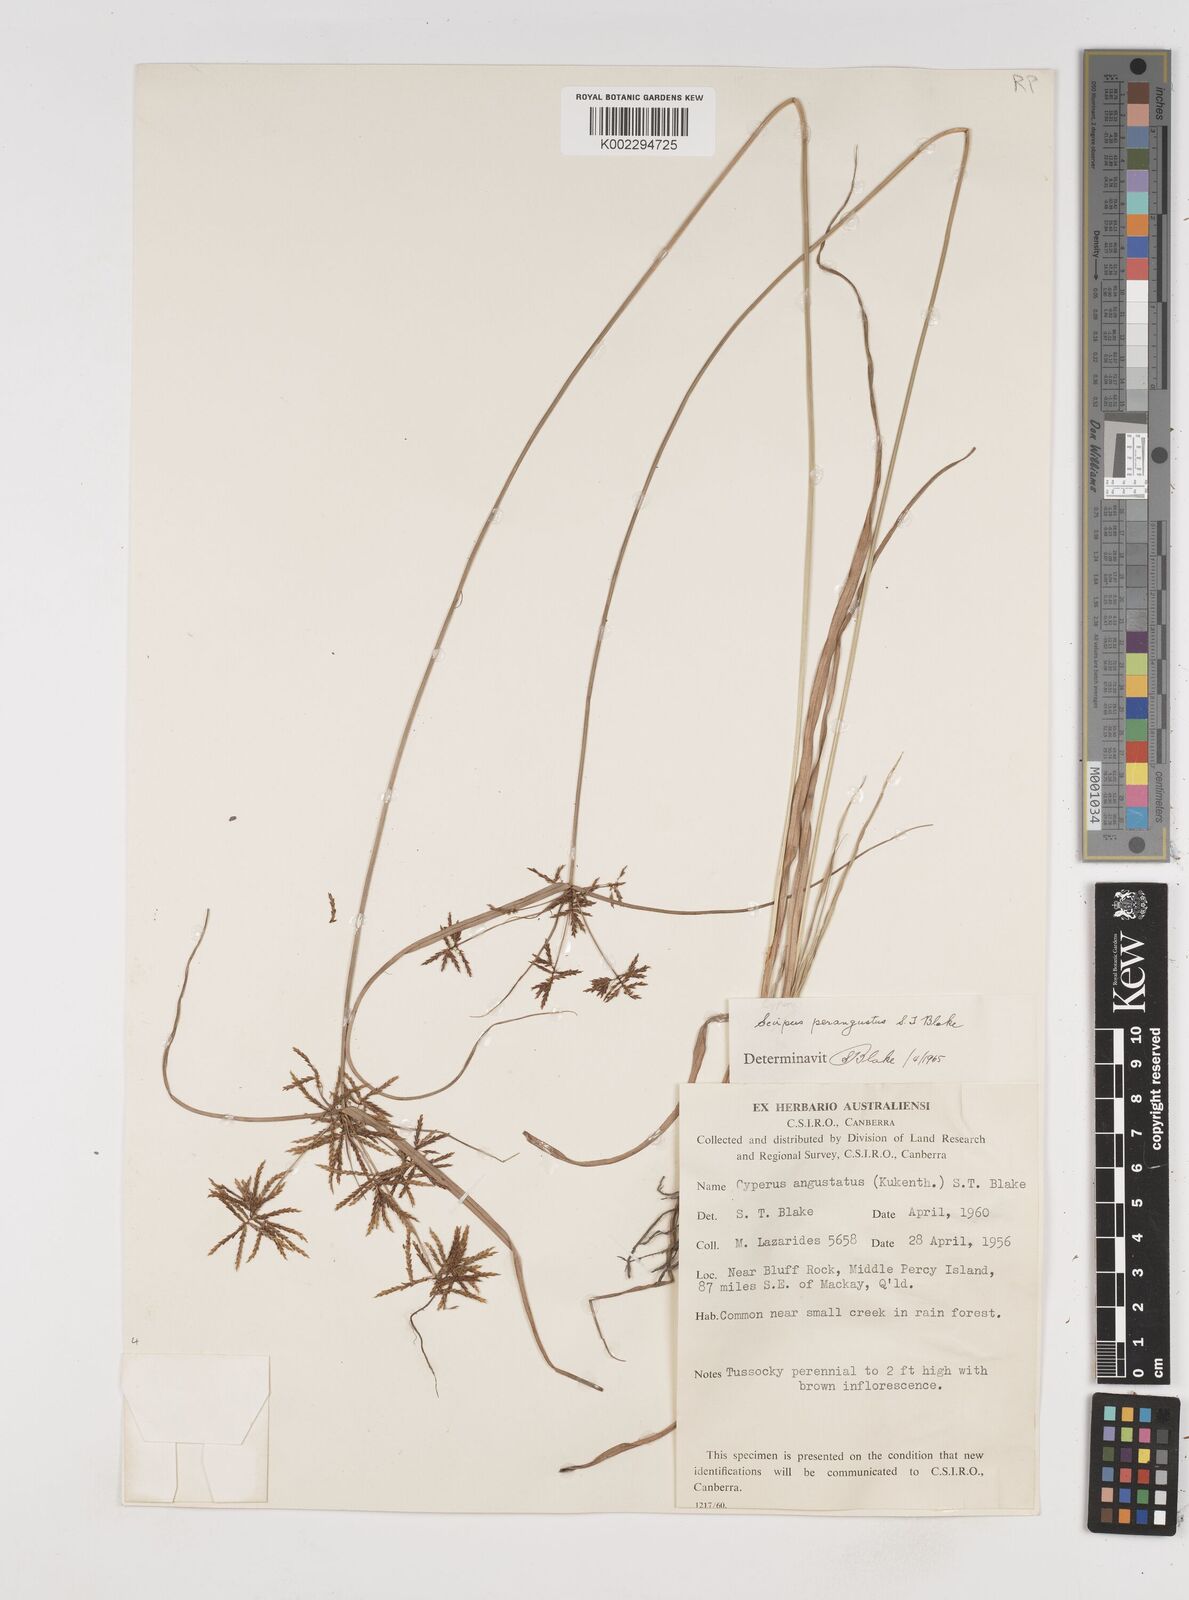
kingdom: Plantae
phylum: Tracheophyta
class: Liliopsida
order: Poales
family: Cyperaceae
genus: Cyperus
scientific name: Cyperus perangustus
